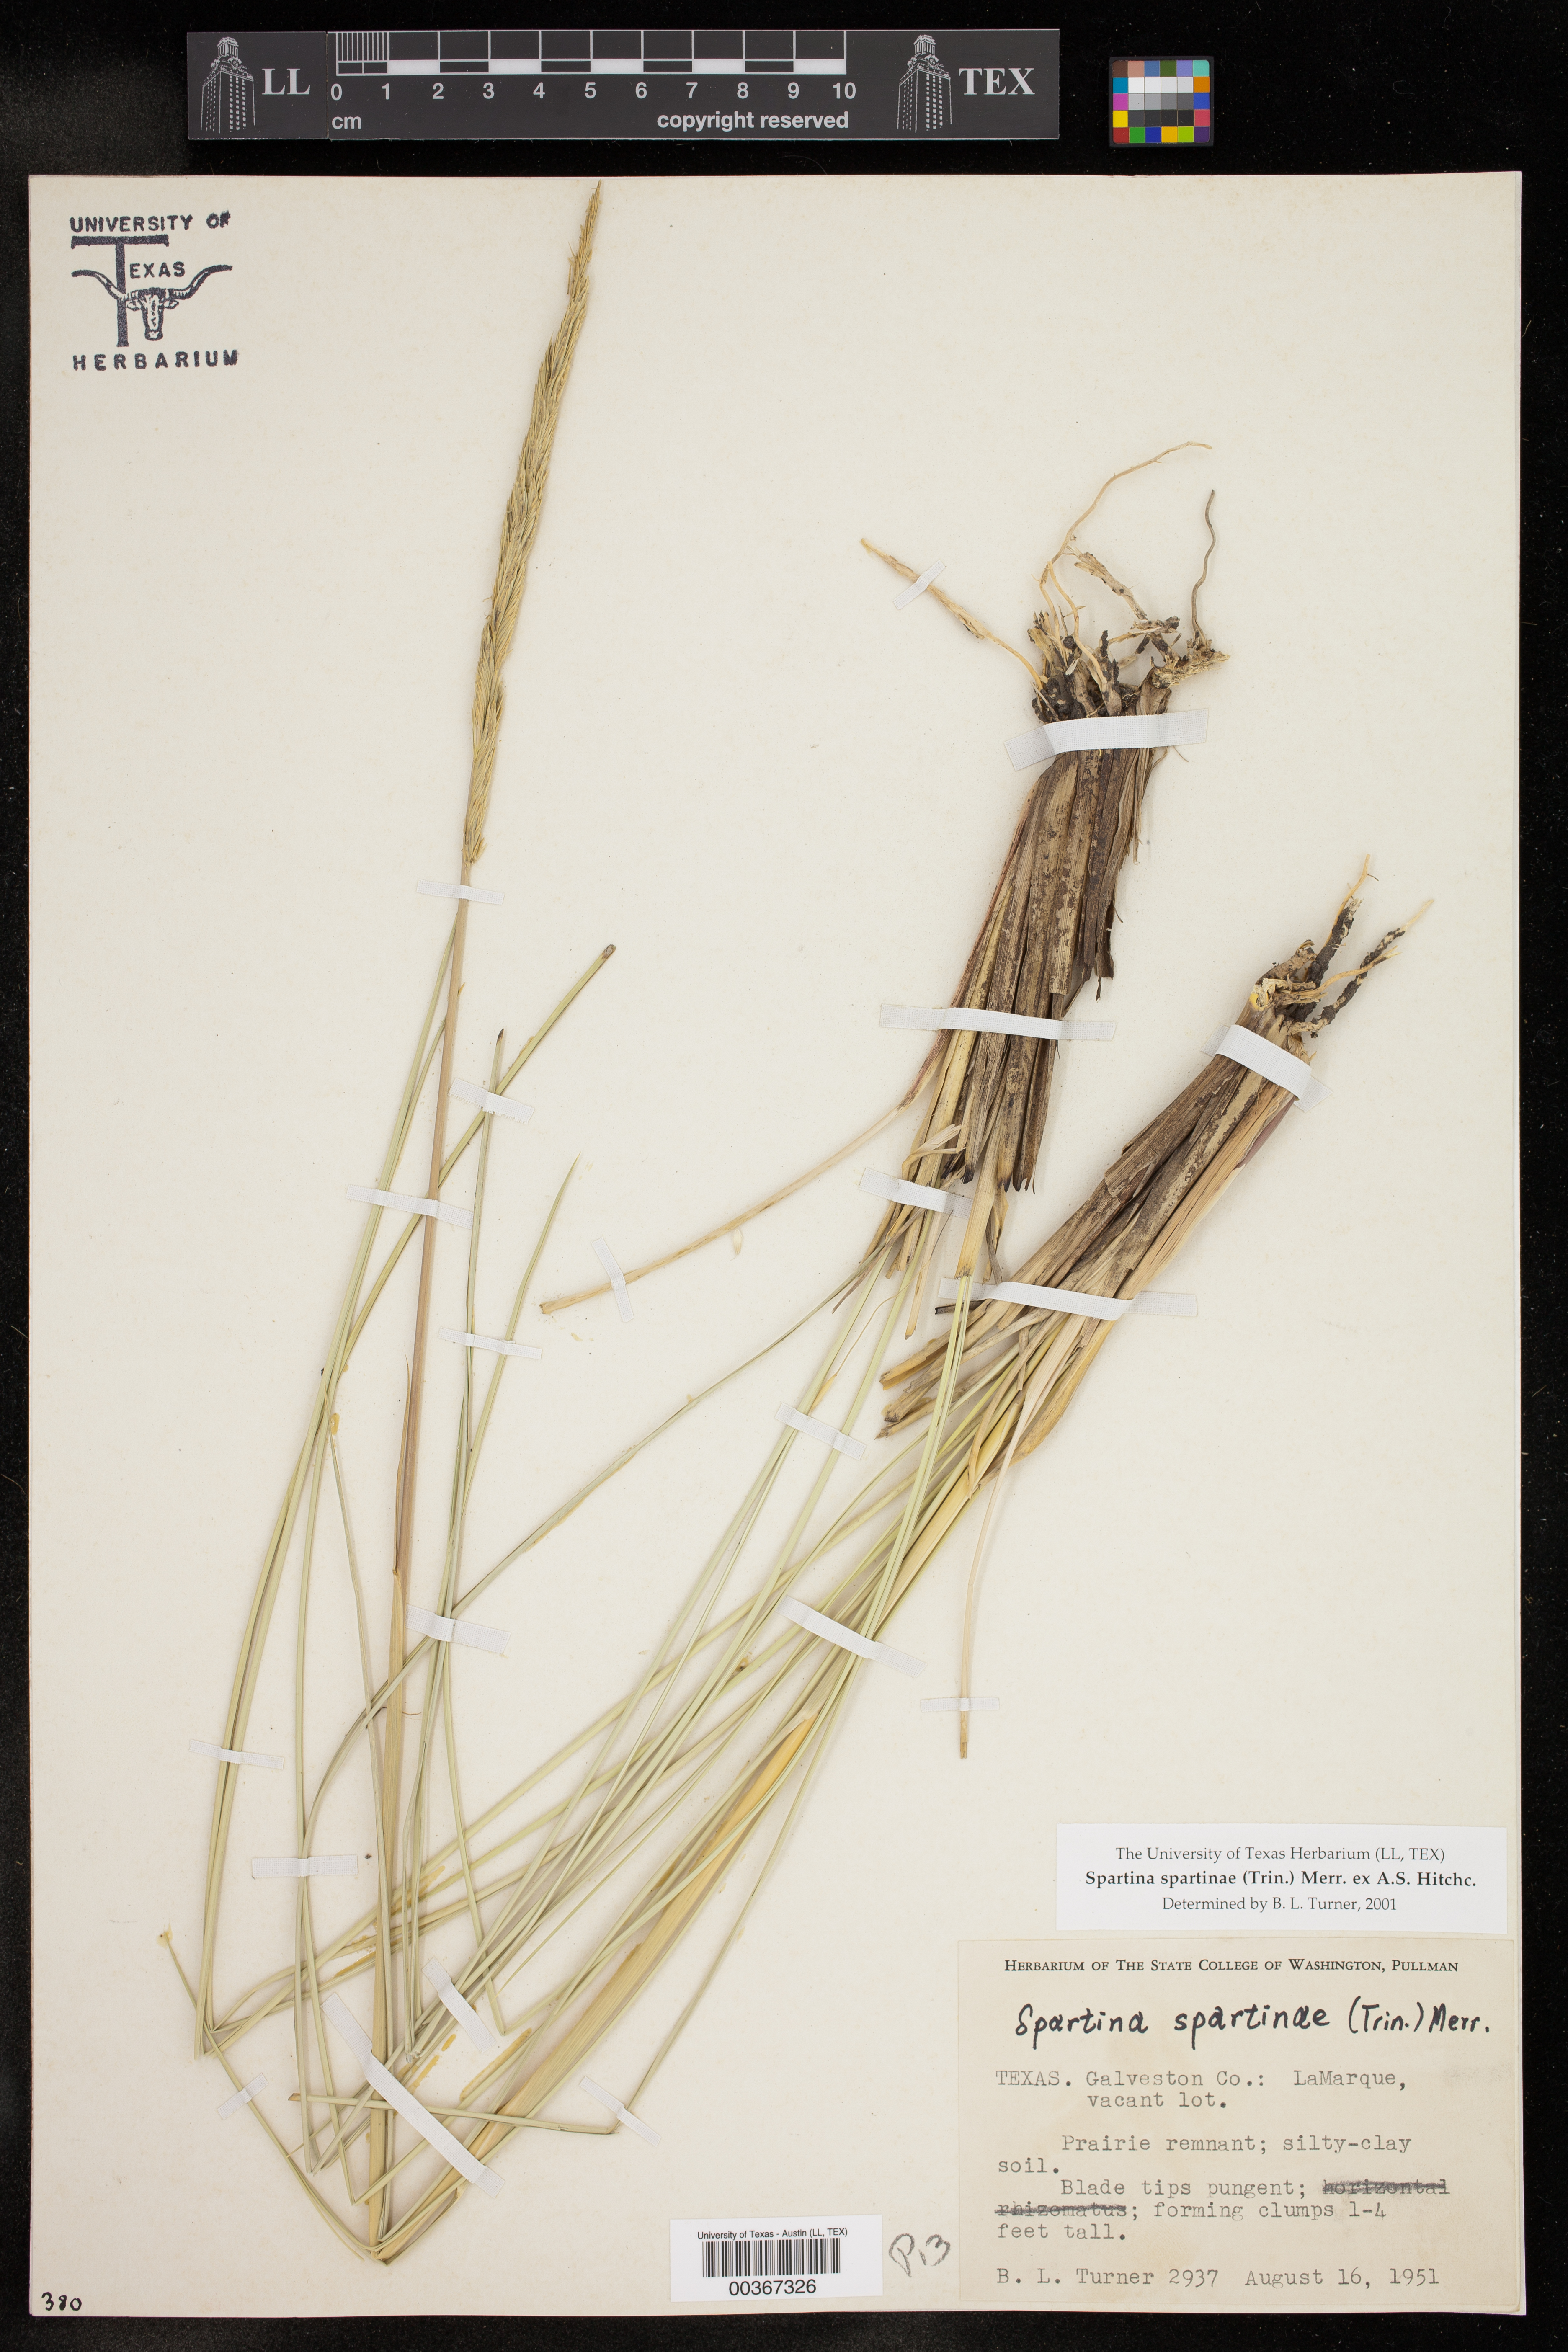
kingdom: Plantae
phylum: Tracheophyta
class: Liliopsida
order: Poales
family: Poaceae
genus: Sporobolus
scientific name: Sporobolus spartinae
